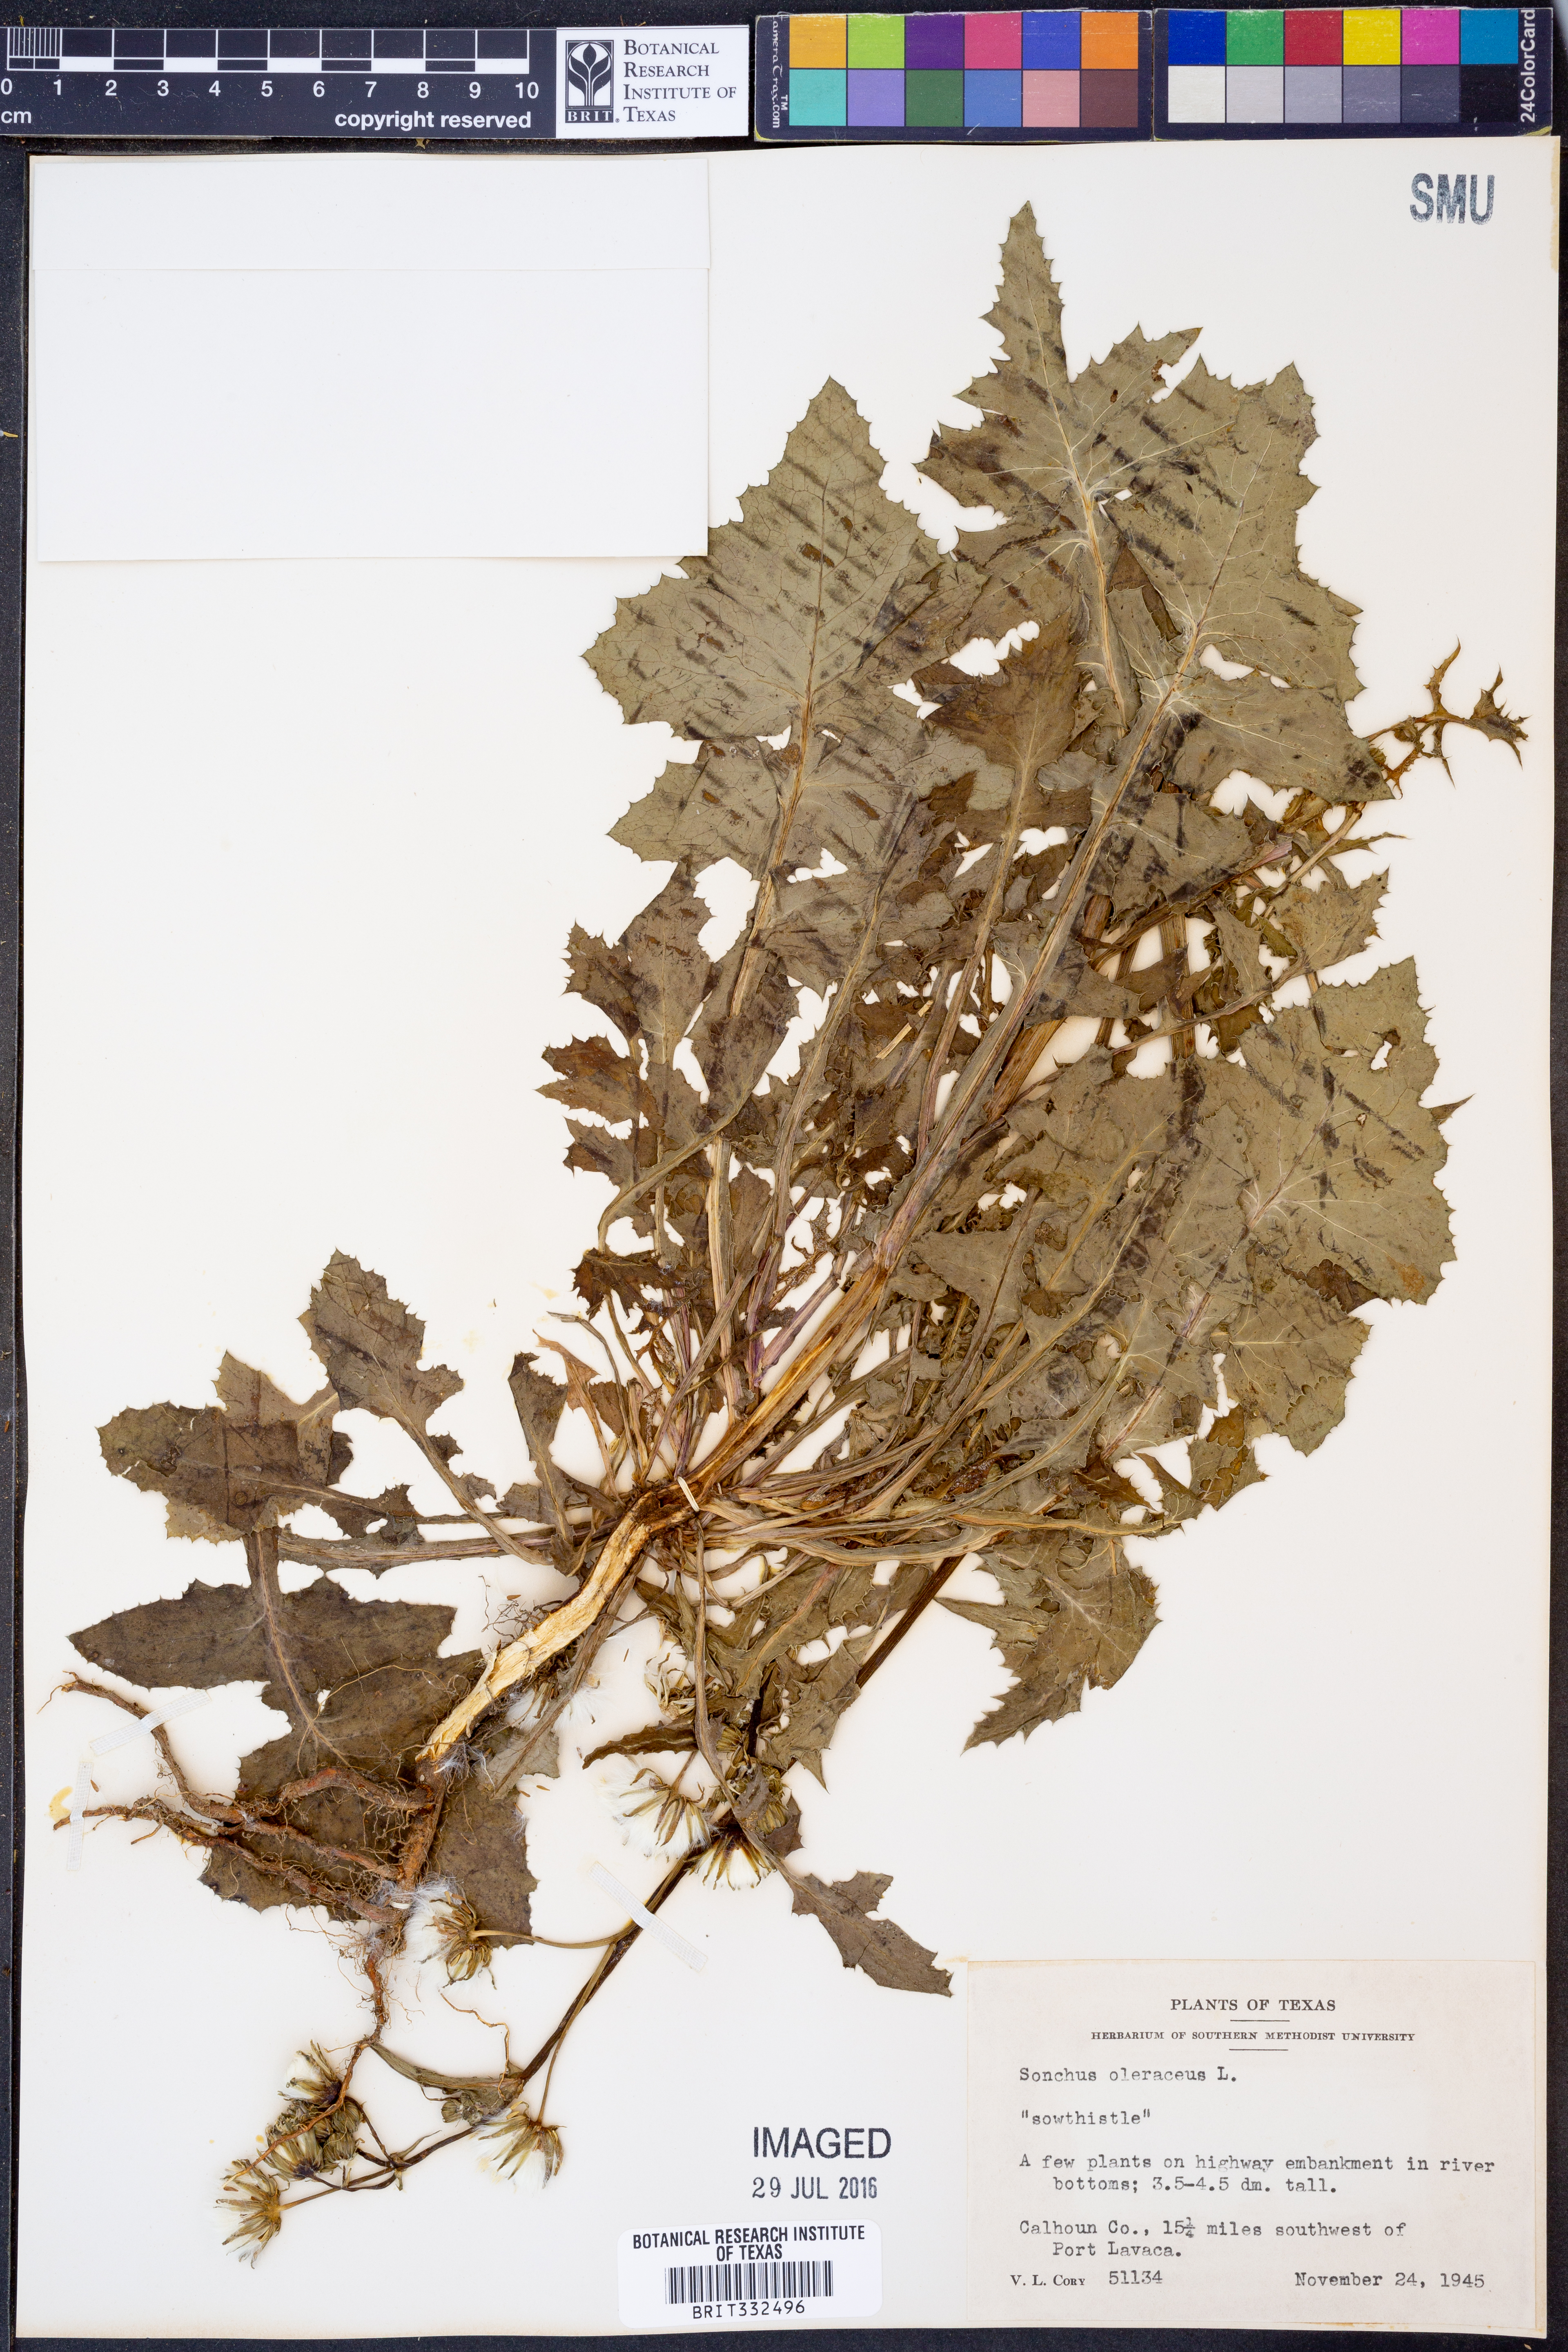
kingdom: Plantae
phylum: Tracheophyta
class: Magnoliopsida
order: Asterales
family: Asteraceae
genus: Sonchus
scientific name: Sonchus oleraceus
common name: Common sowthistle
